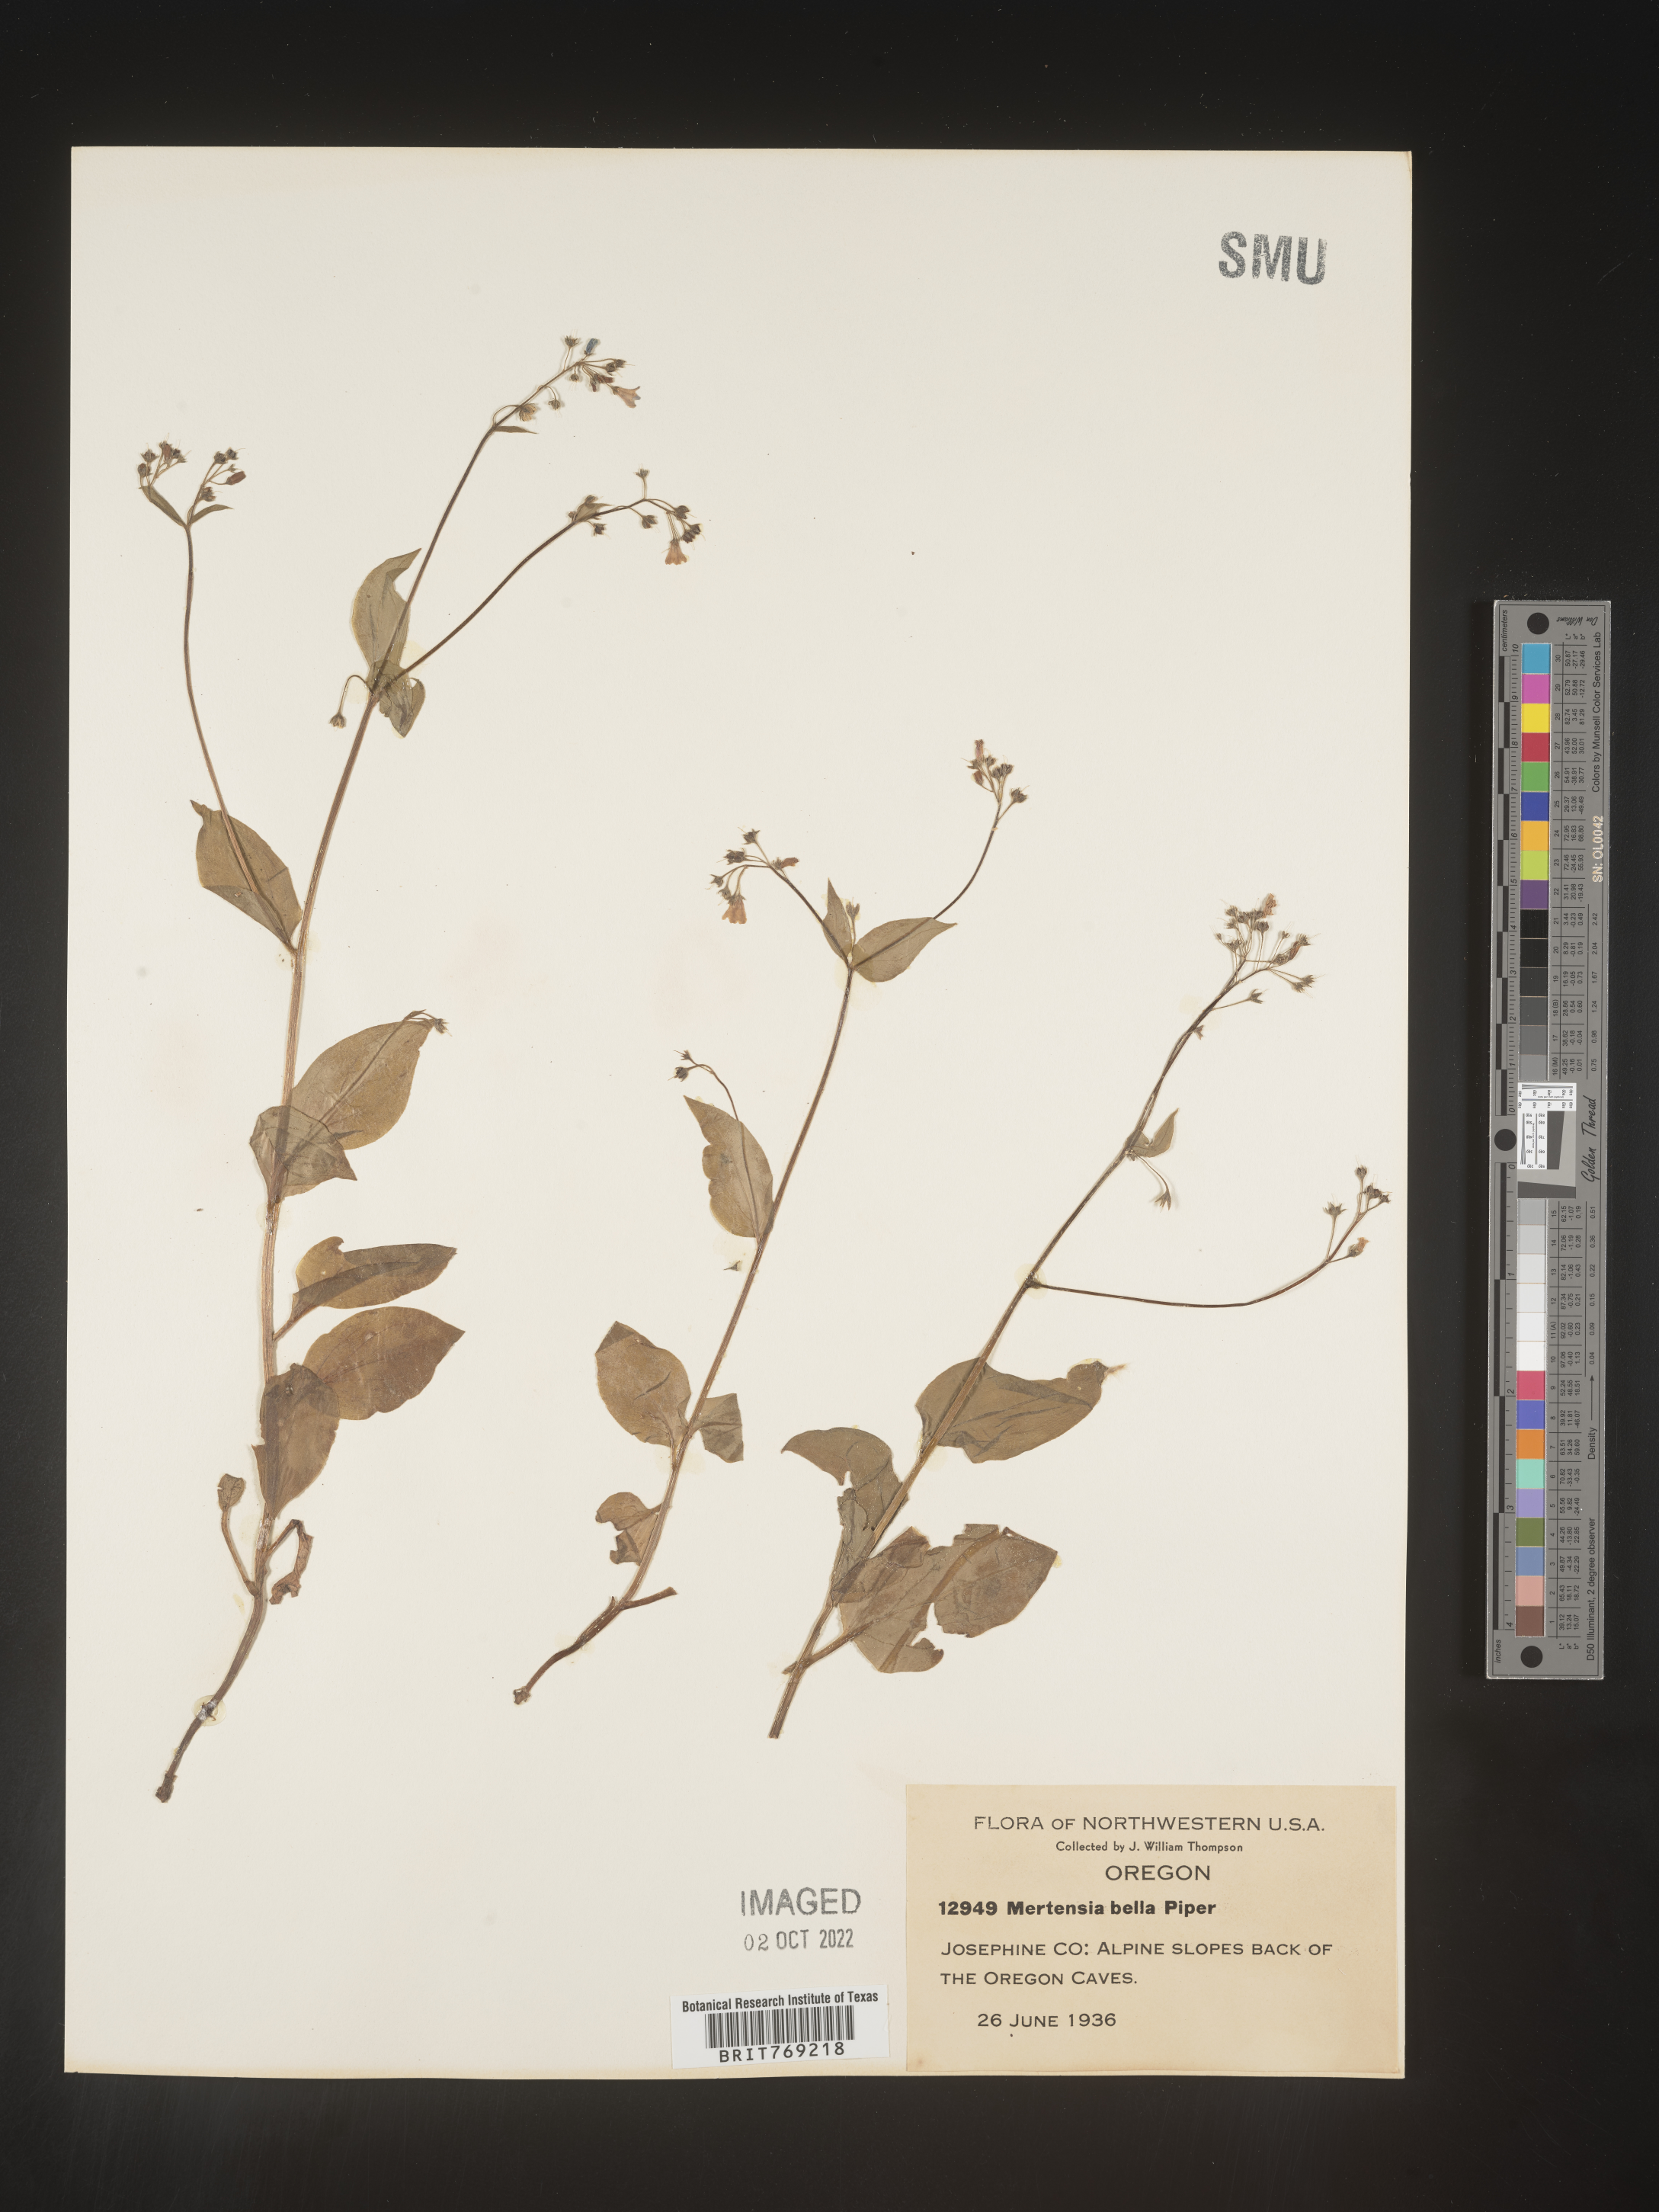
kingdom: Plantae
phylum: Tracheophyta
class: Magnoliopsida
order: Boraginales
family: Boraginaceae
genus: Mertensia
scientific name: Mertensia
